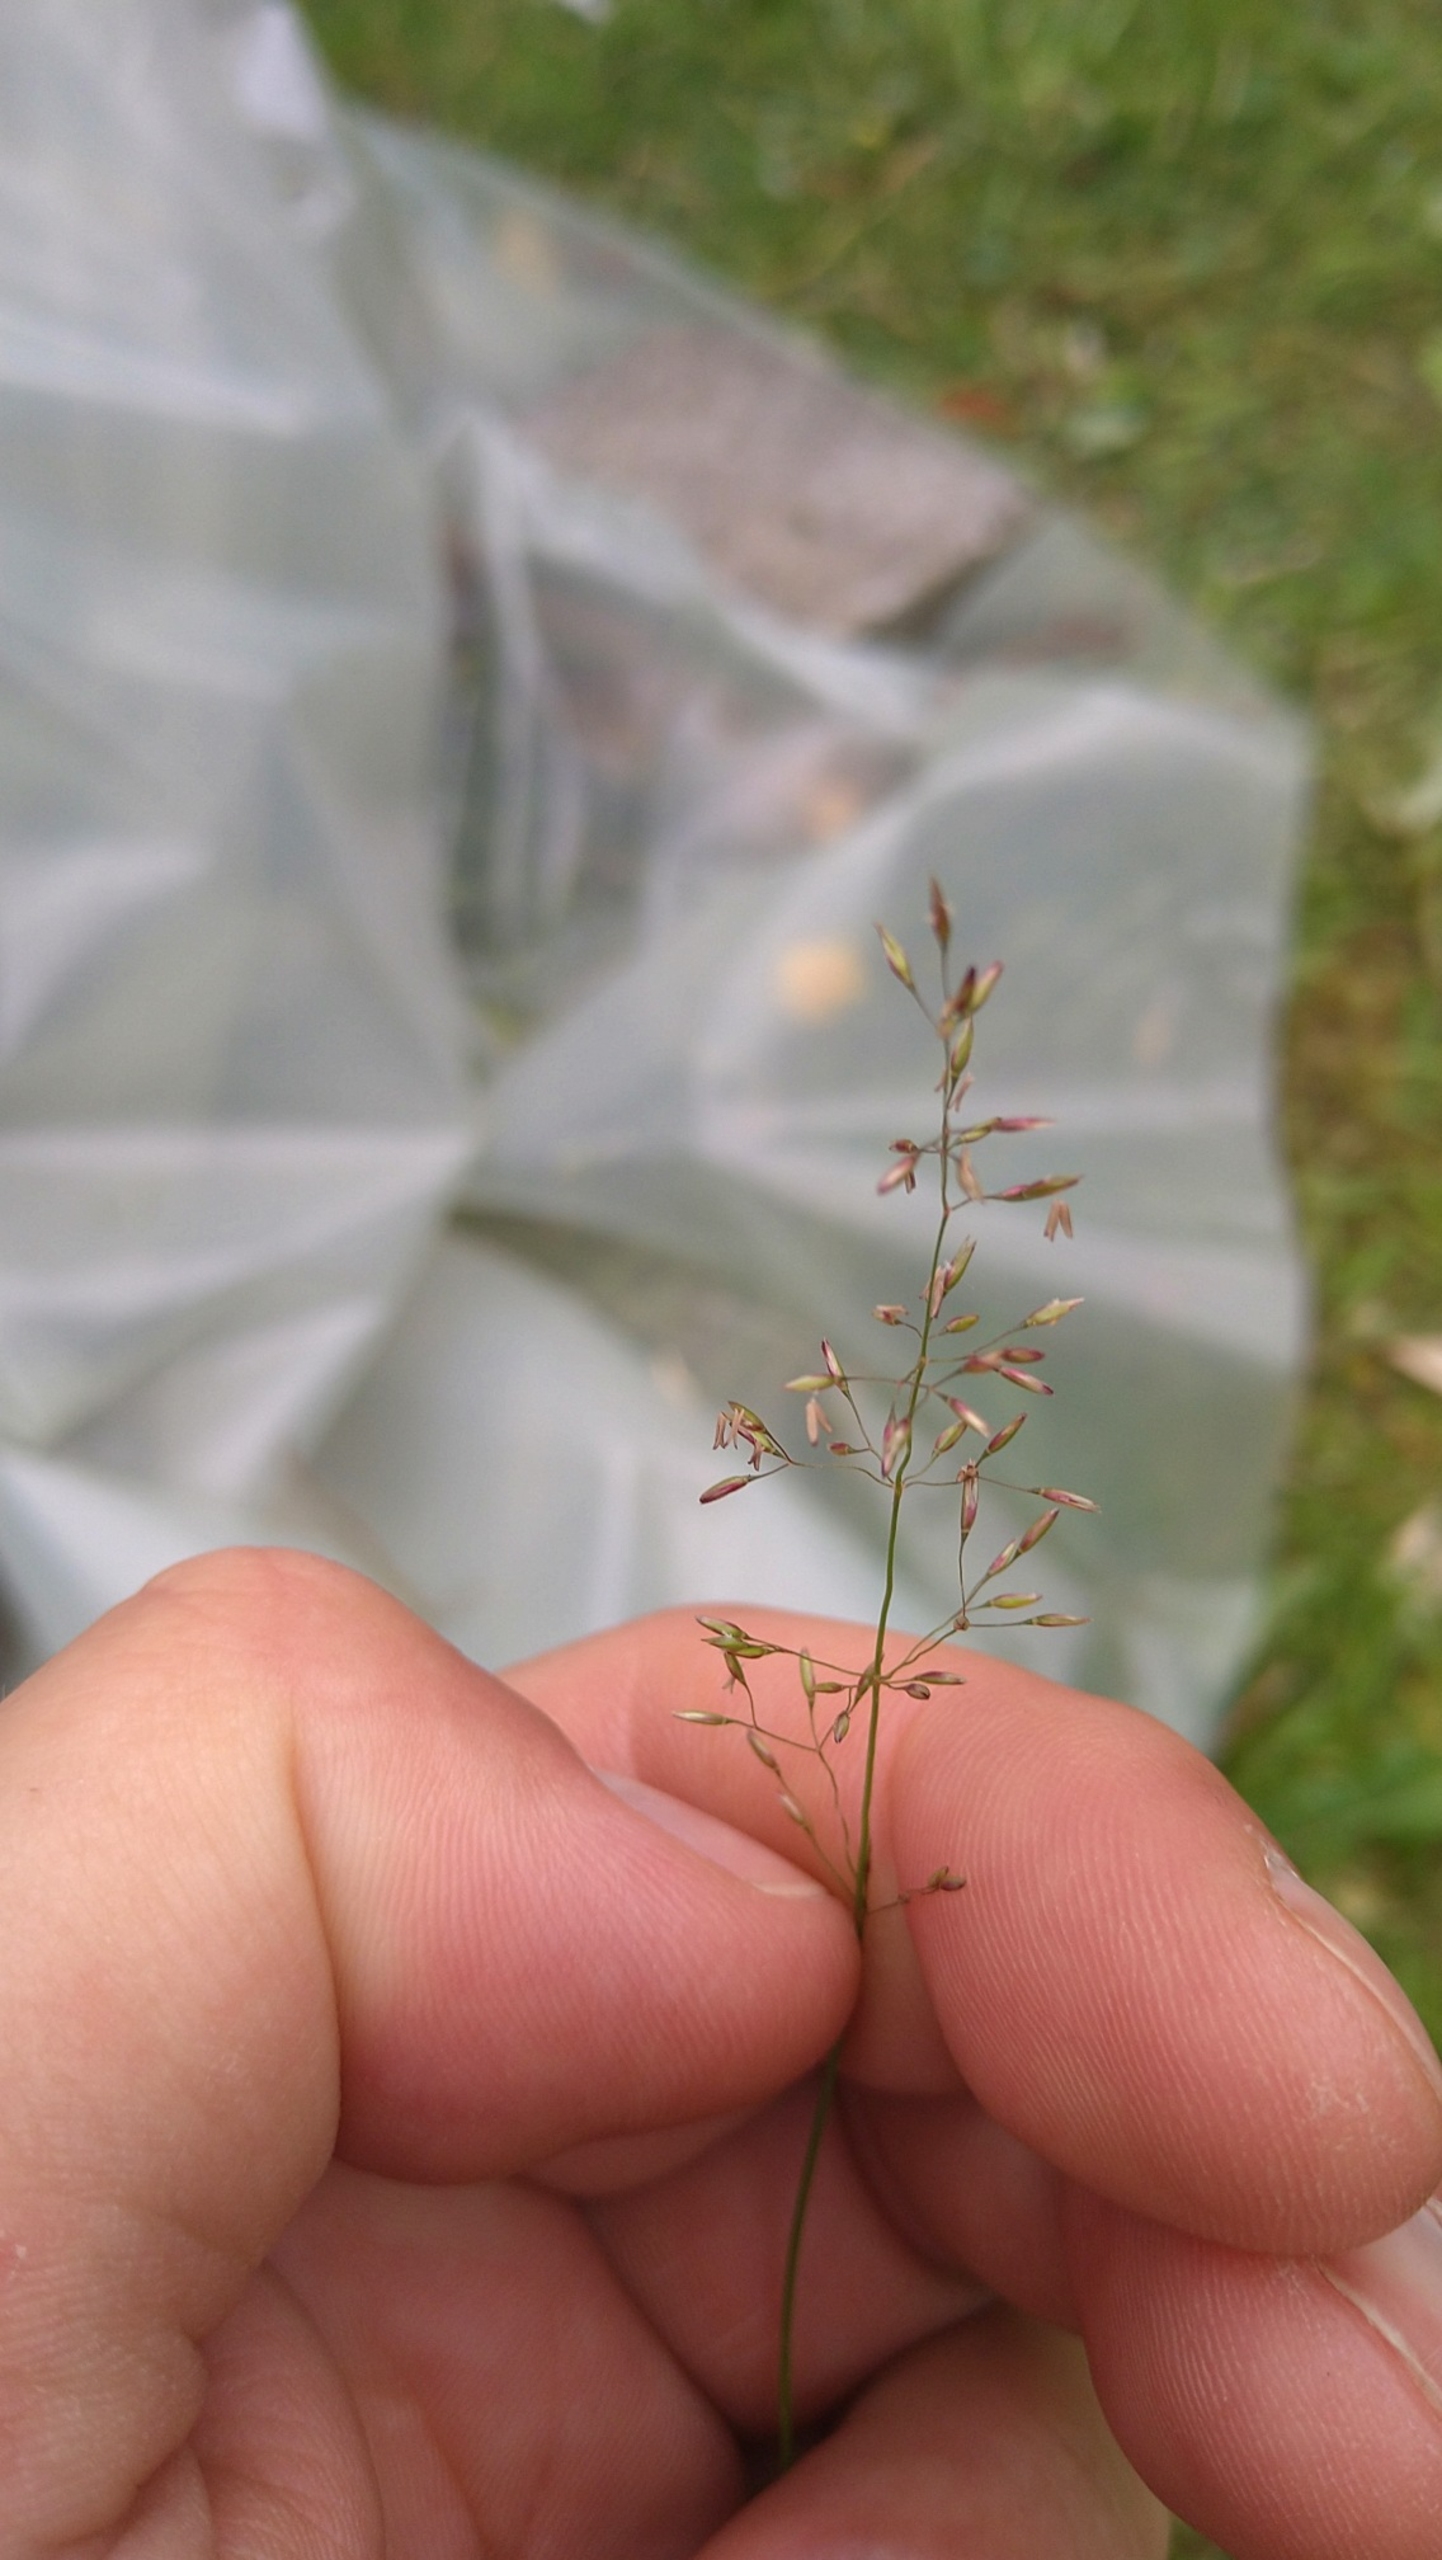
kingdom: Plantae
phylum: Tracheophyta
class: Liliopsida
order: Poales
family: Poaceae
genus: Agrostis
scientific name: Agrostis capillaris
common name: Almindelig hvene
